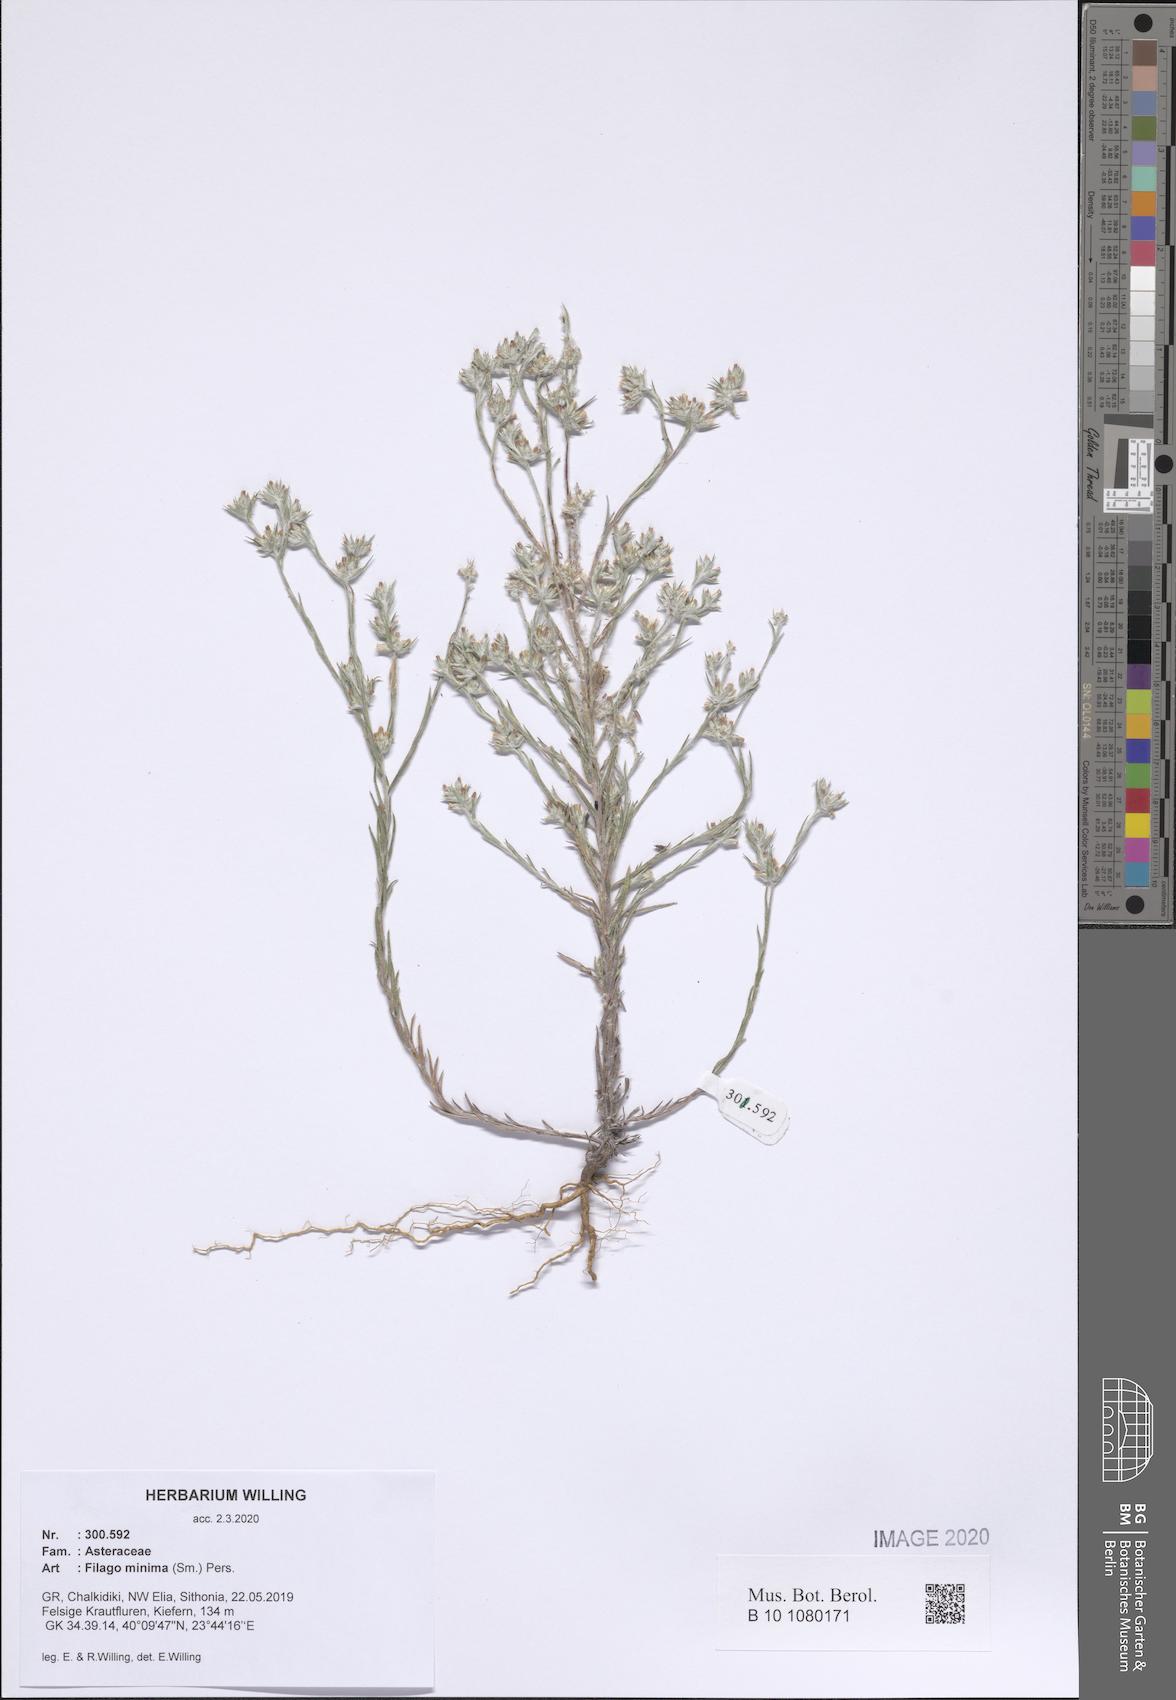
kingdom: Plantae
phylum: Tracheophyta
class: Magnoliopsida
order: Asterales
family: Asteraceae
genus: Logfia
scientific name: Logfia minima
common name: Little cottonrose
